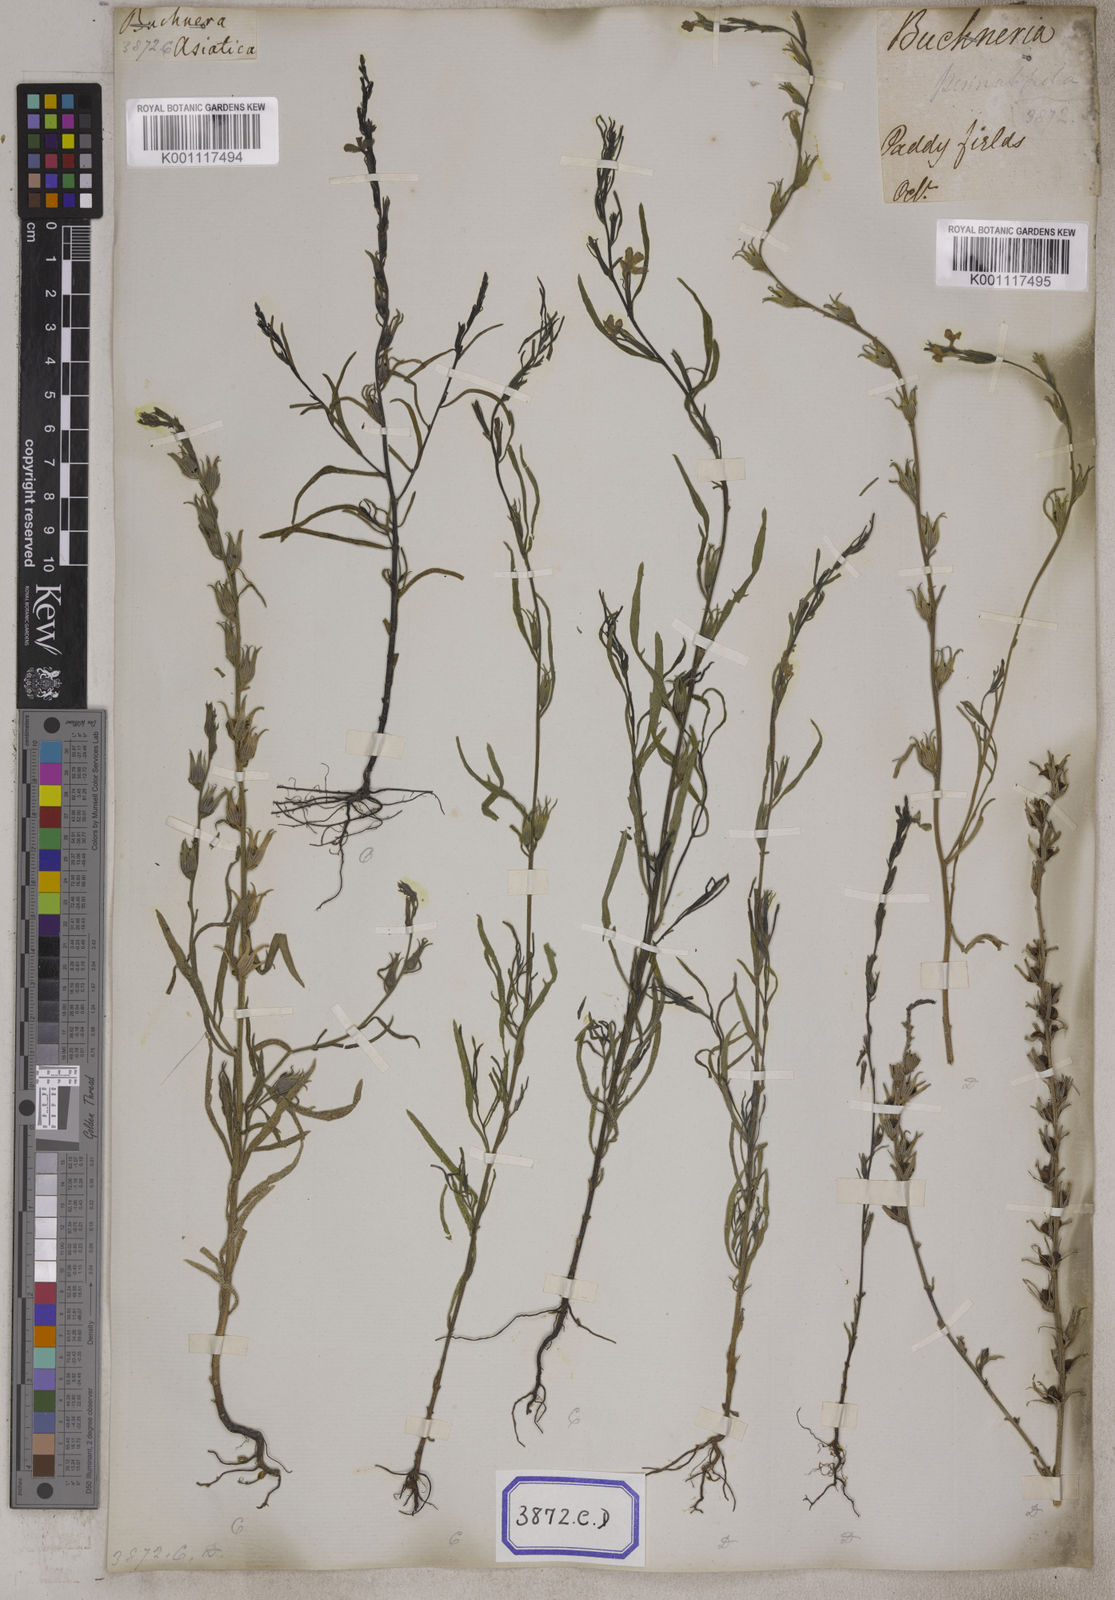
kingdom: Plantae
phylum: Tracheophyta
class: Magnoliopsida
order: Lamiales
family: Orobanchaceae
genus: Striga
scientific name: Striga angustifolia
